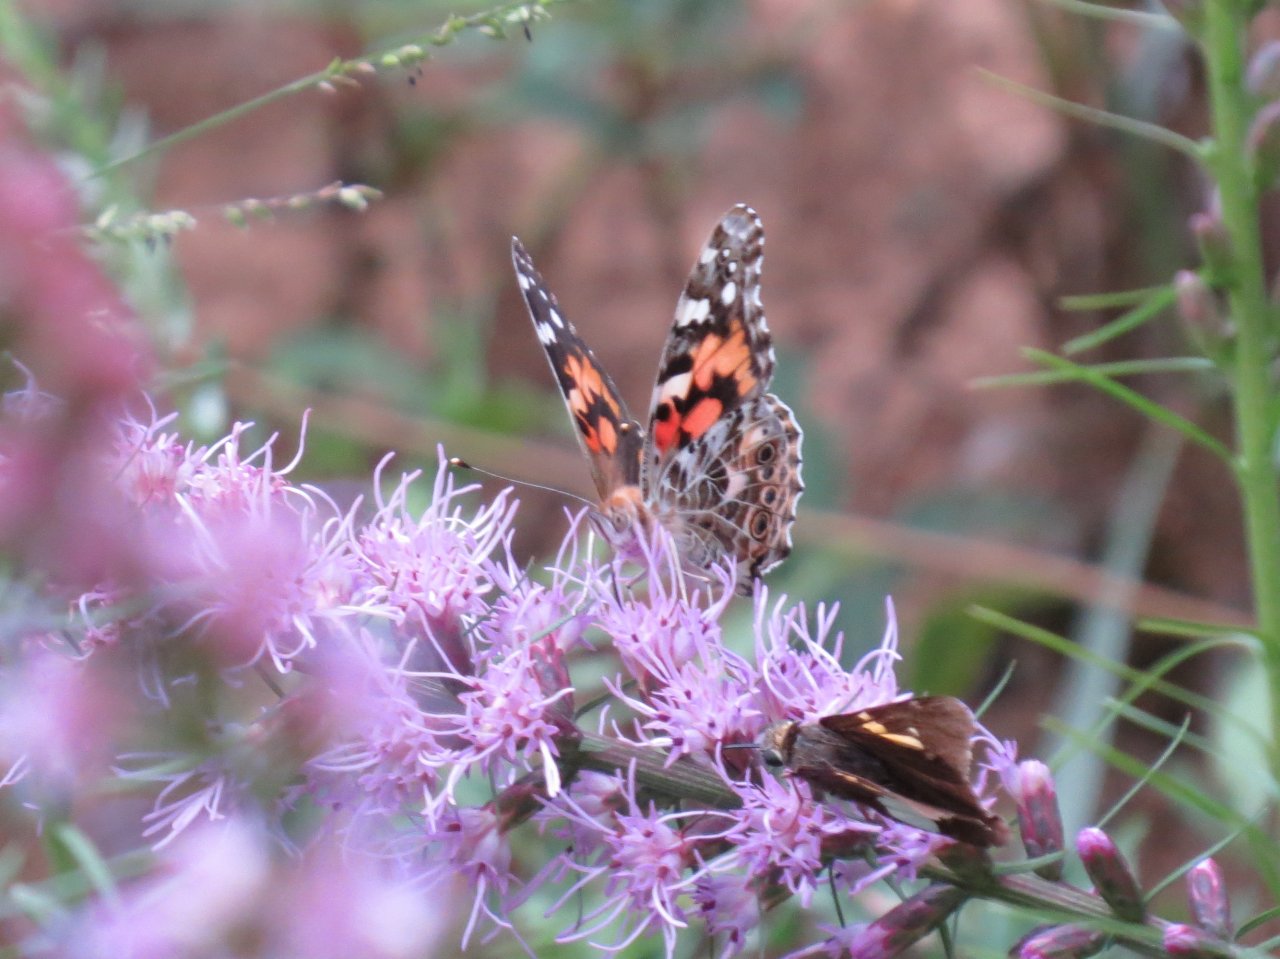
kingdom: Animalia
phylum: Arthropoda
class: Insecta
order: Lepidoptera
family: Nymphalidae
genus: Vanessa
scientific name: Vanessa cardui
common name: Painted Lady
